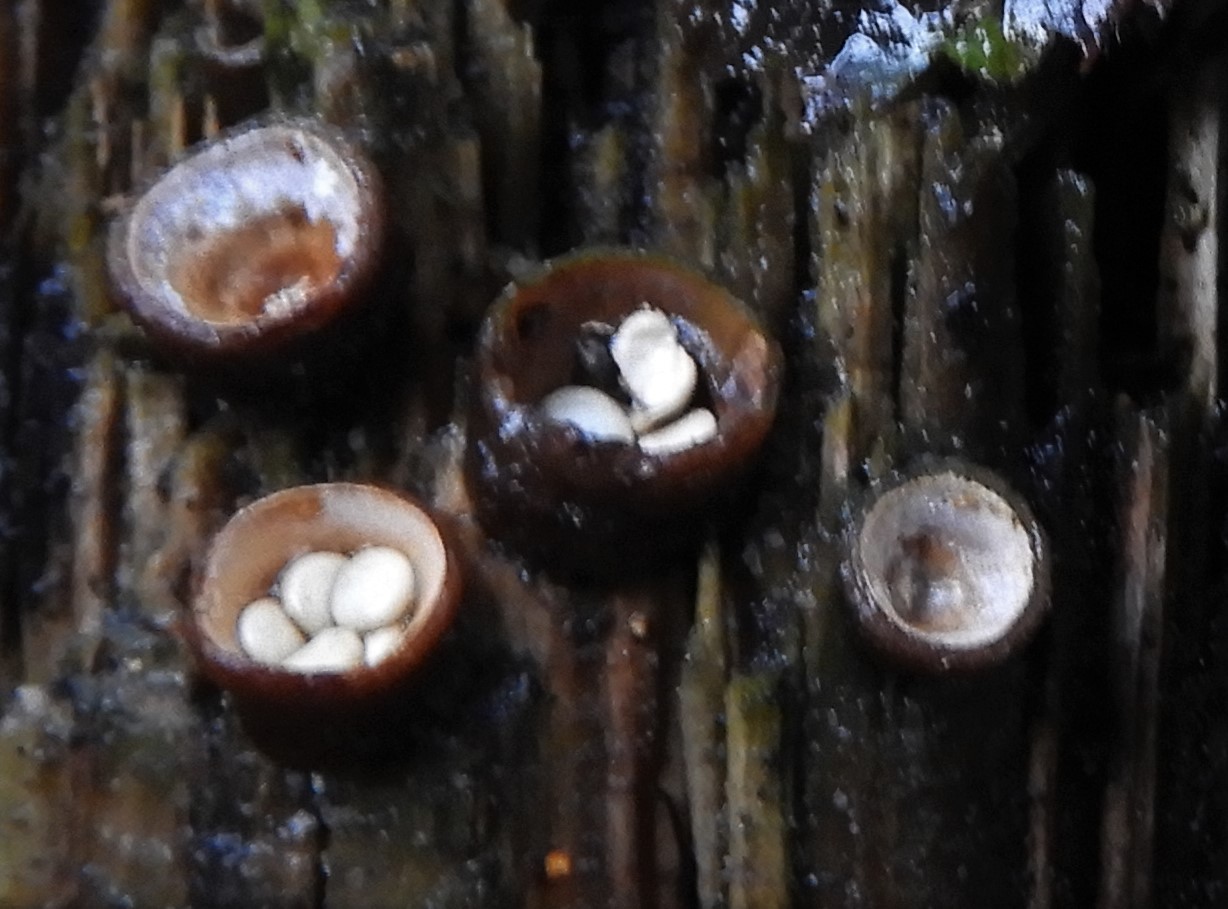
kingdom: Fungi
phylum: Basidiomycota
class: Agaricomycetes
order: Agaricales
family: Nidulariaceae
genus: Crucibulum
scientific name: Crucibulum crucibuliforme
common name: krukkesvamp
